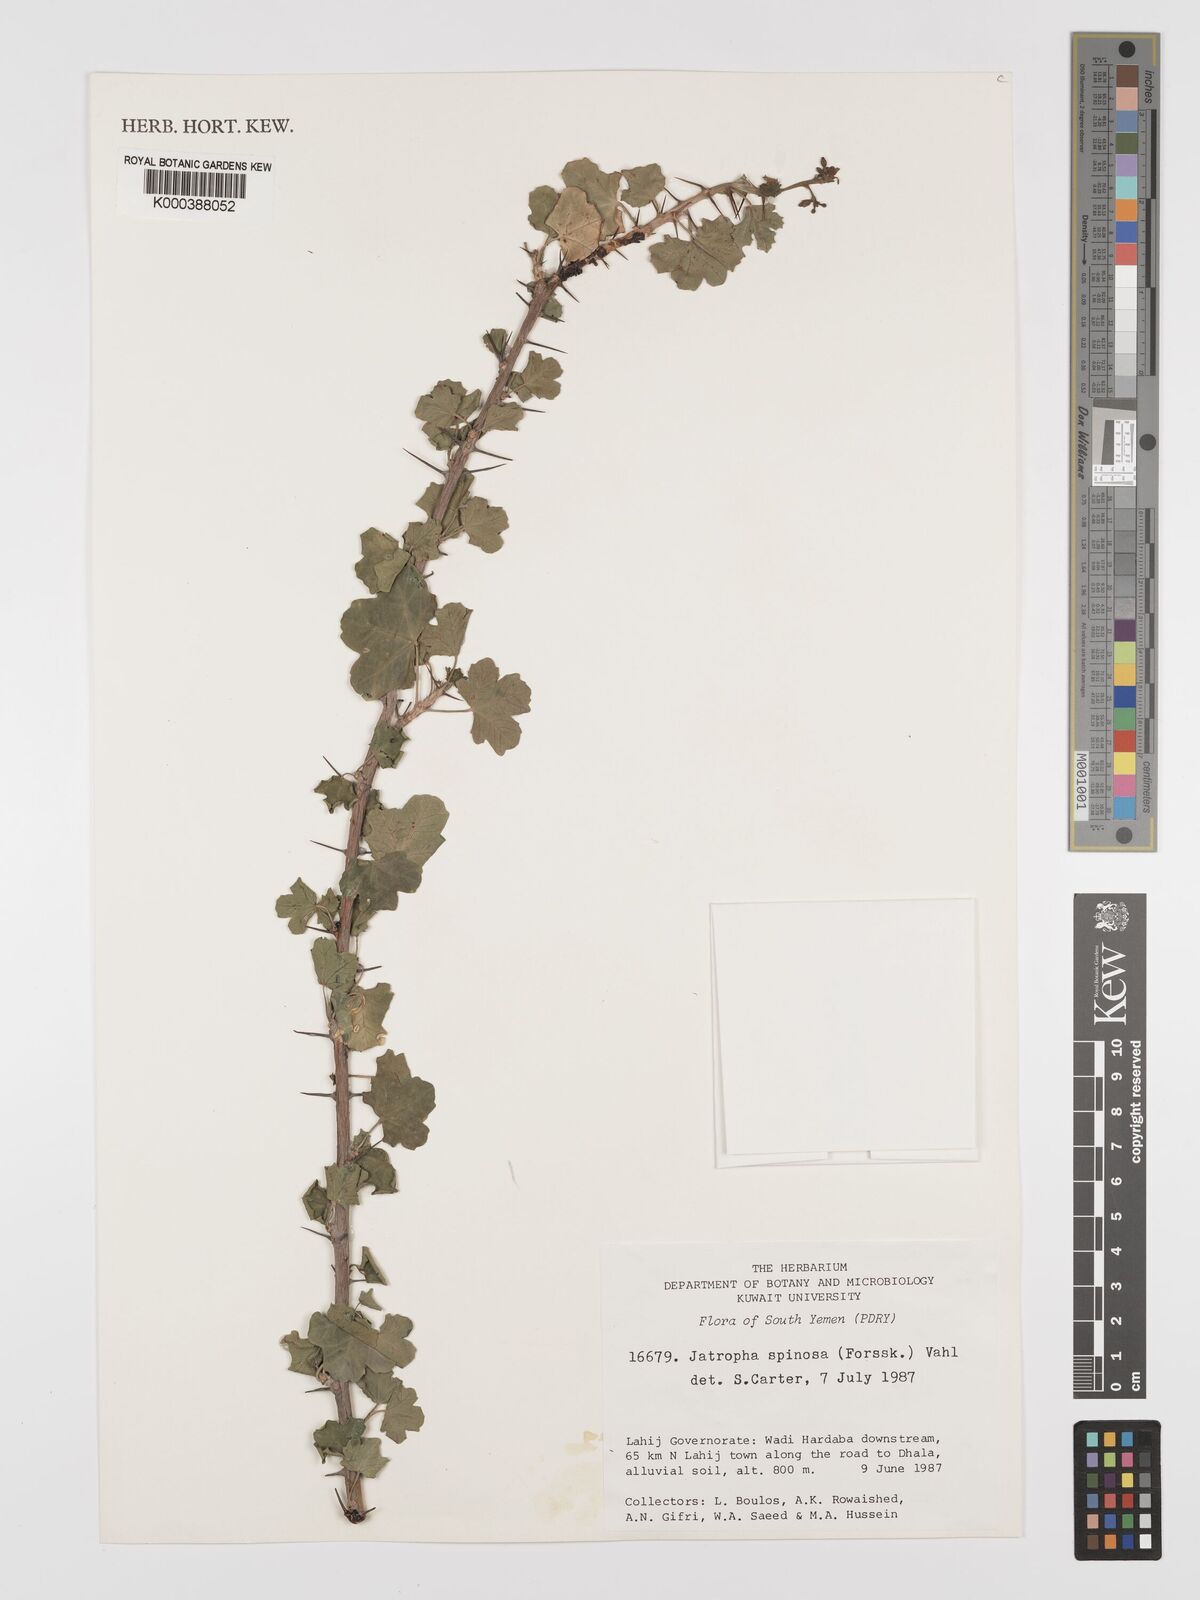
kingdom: Plantae
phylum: Tracheophyta
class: Magnoliopsida
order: Malpighiales
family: Euphorbiaceae
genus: Jatropha
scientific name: Jatropha spinosa
